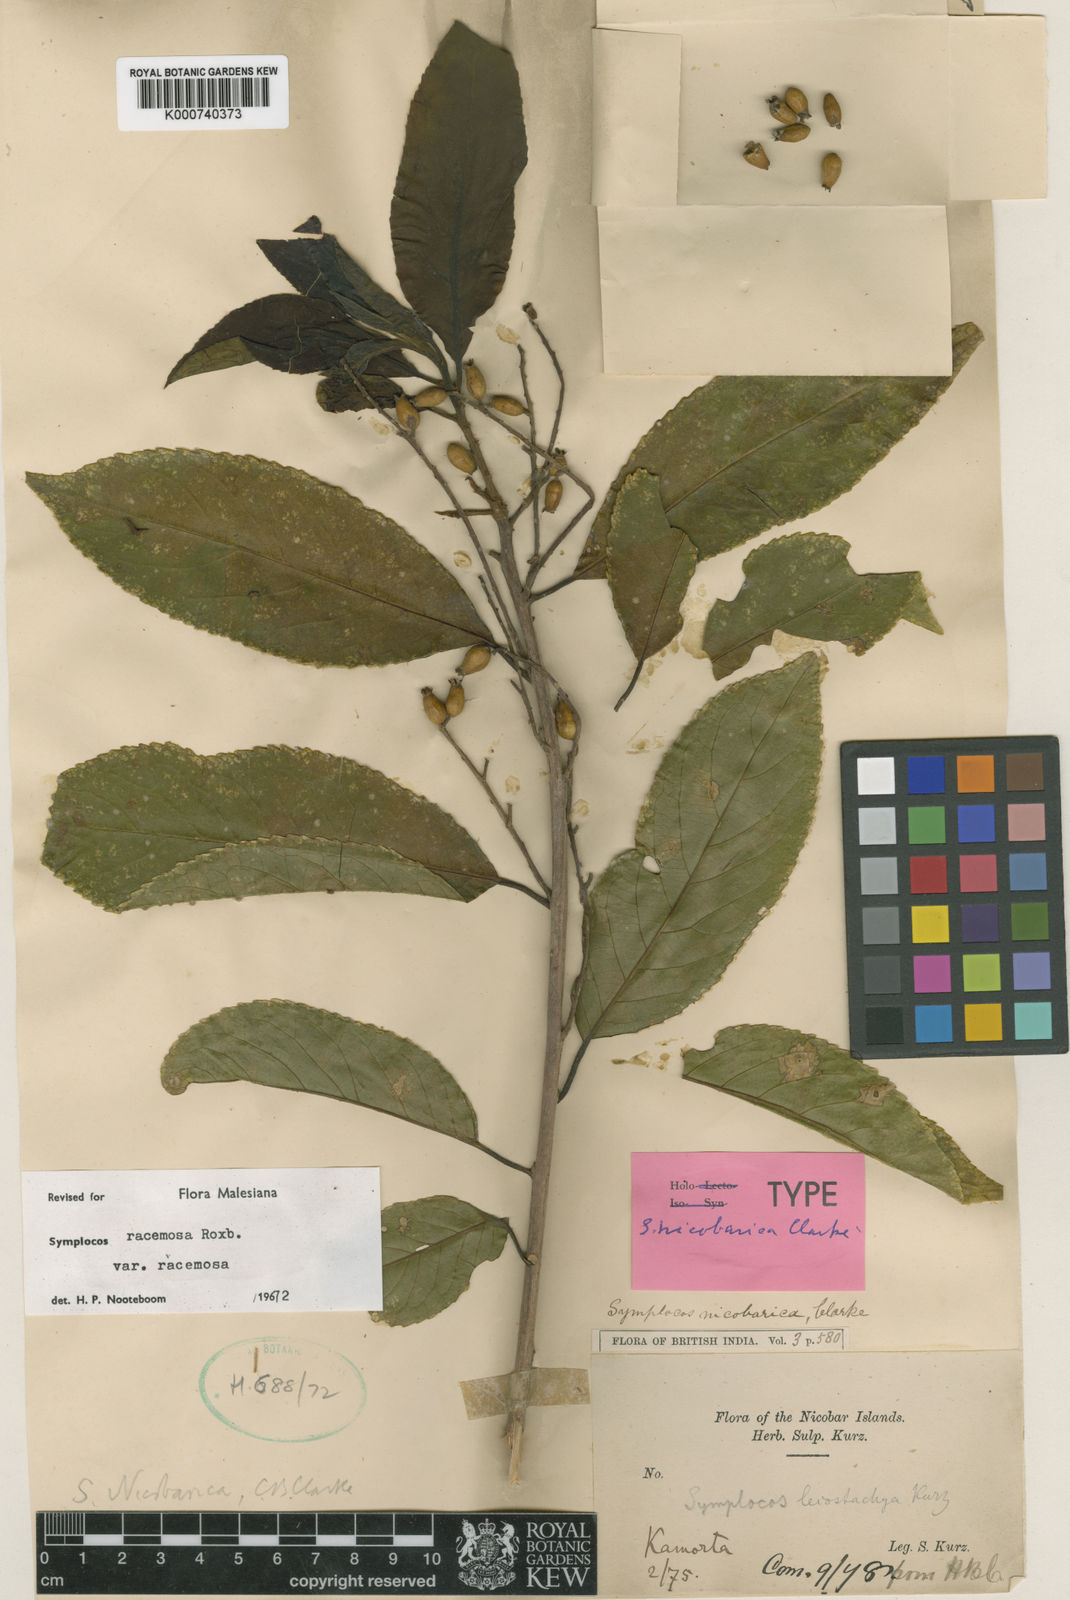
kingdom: Plantae
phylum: Tracheophyta
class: Magnoliopsida
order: Ericales
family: Symplocaceae
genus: Symplocos
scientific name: Symplocos racemosa
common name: Lodhtree
